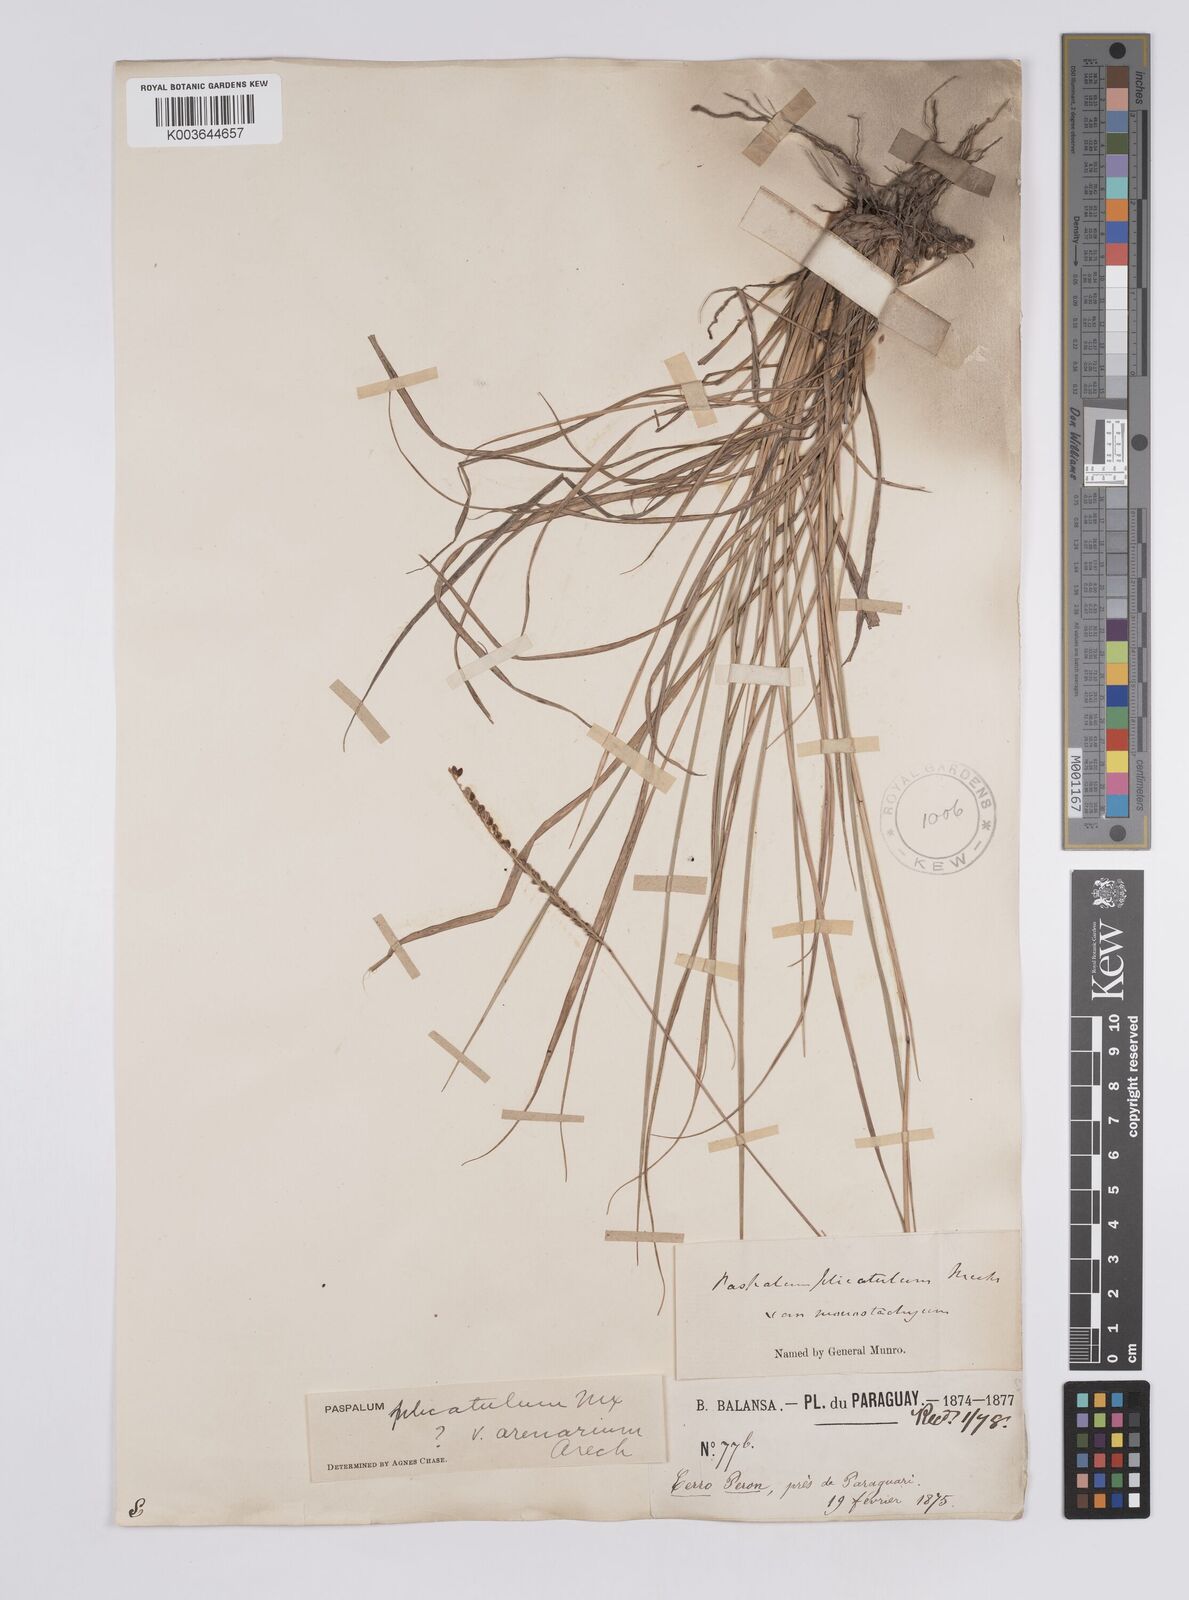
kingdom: Plantae
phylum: Tracheophyta
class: Liliopsida
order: Poales
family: Poaceae
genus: Paspalum
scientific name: Paspalum plicatulum
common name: Top paspalum
